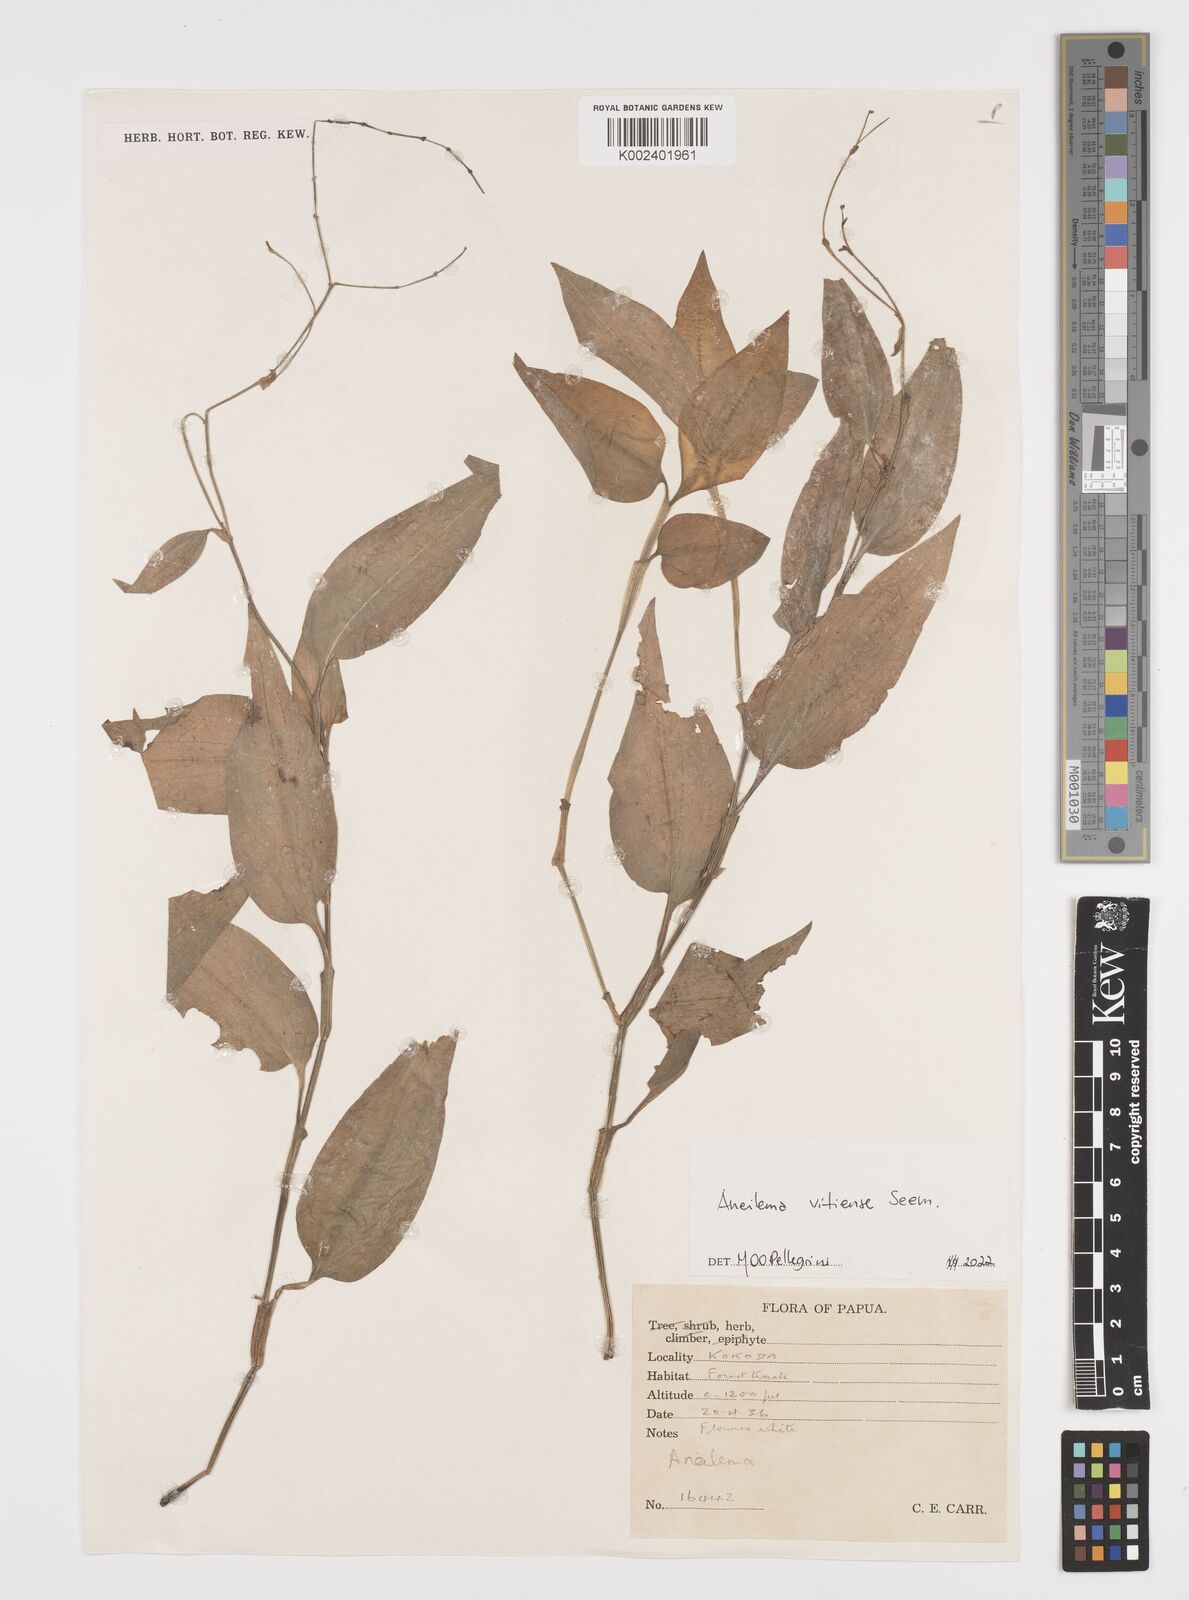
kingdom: Plantae
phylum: Tracheophyta
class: Liliopsida
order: Commelinales
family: Commelinaceae
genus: Rhopalephora
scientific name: Rhopalephora vitiensis
